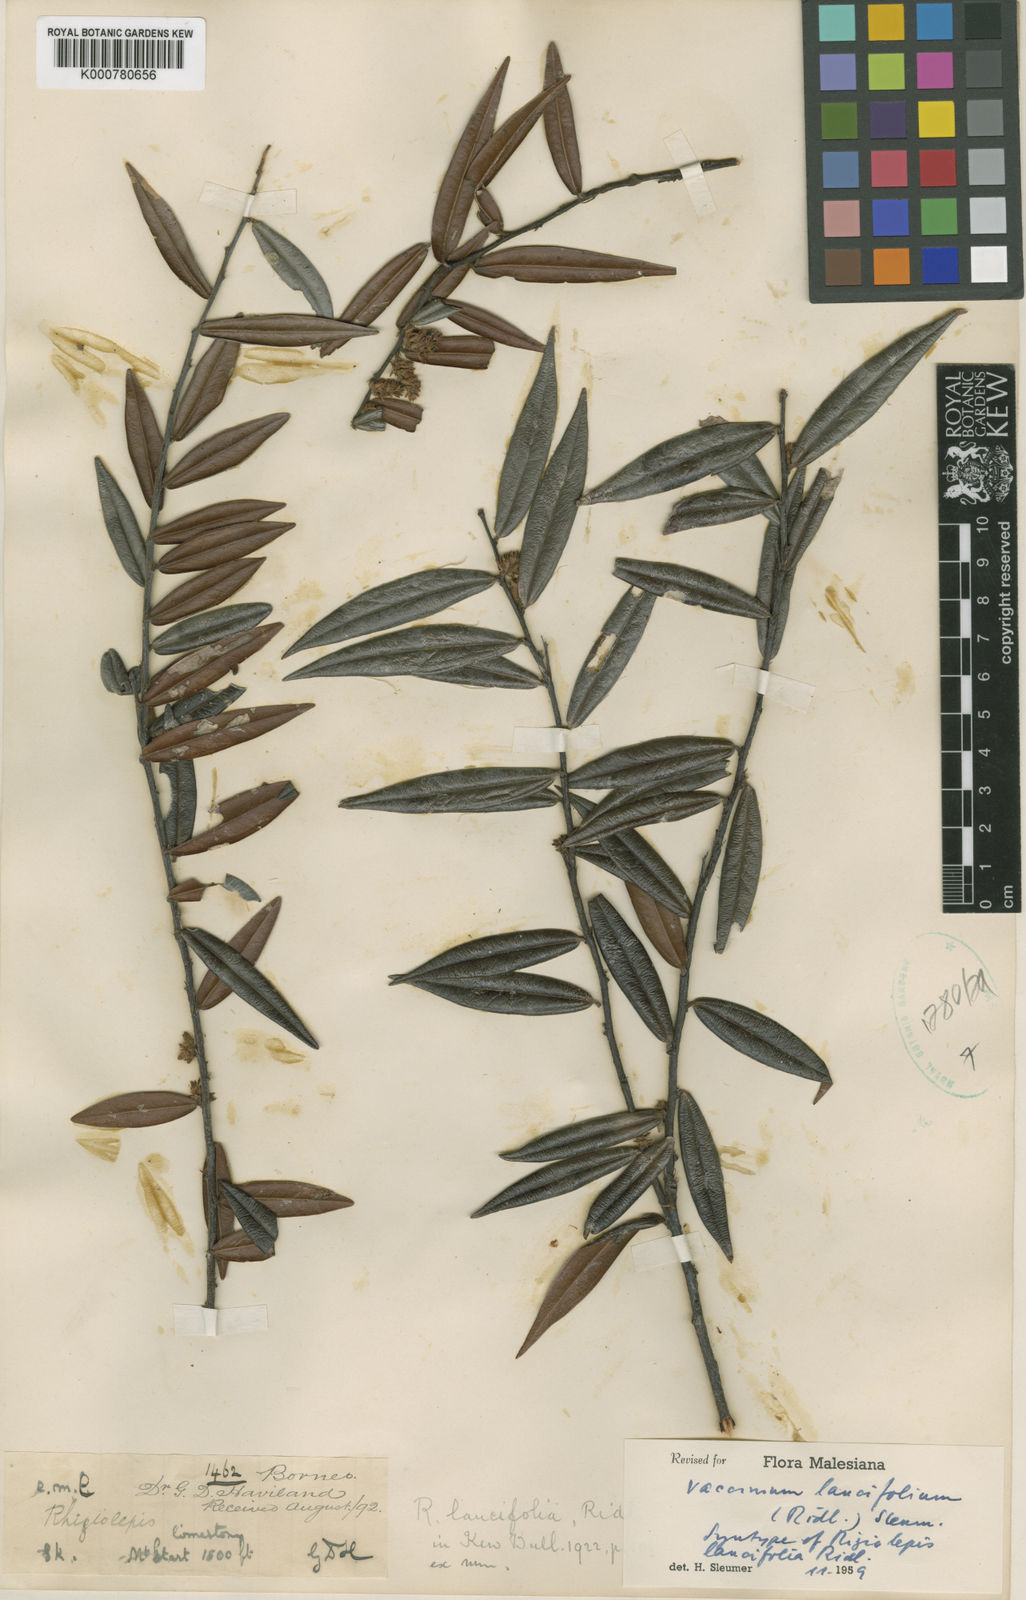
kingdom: Plantae
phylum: Tracheophyta
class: Magnoliopsida
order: Ericales
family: Ericaceae
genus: Rigiolepis
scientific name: Rigiolepis lobbii
